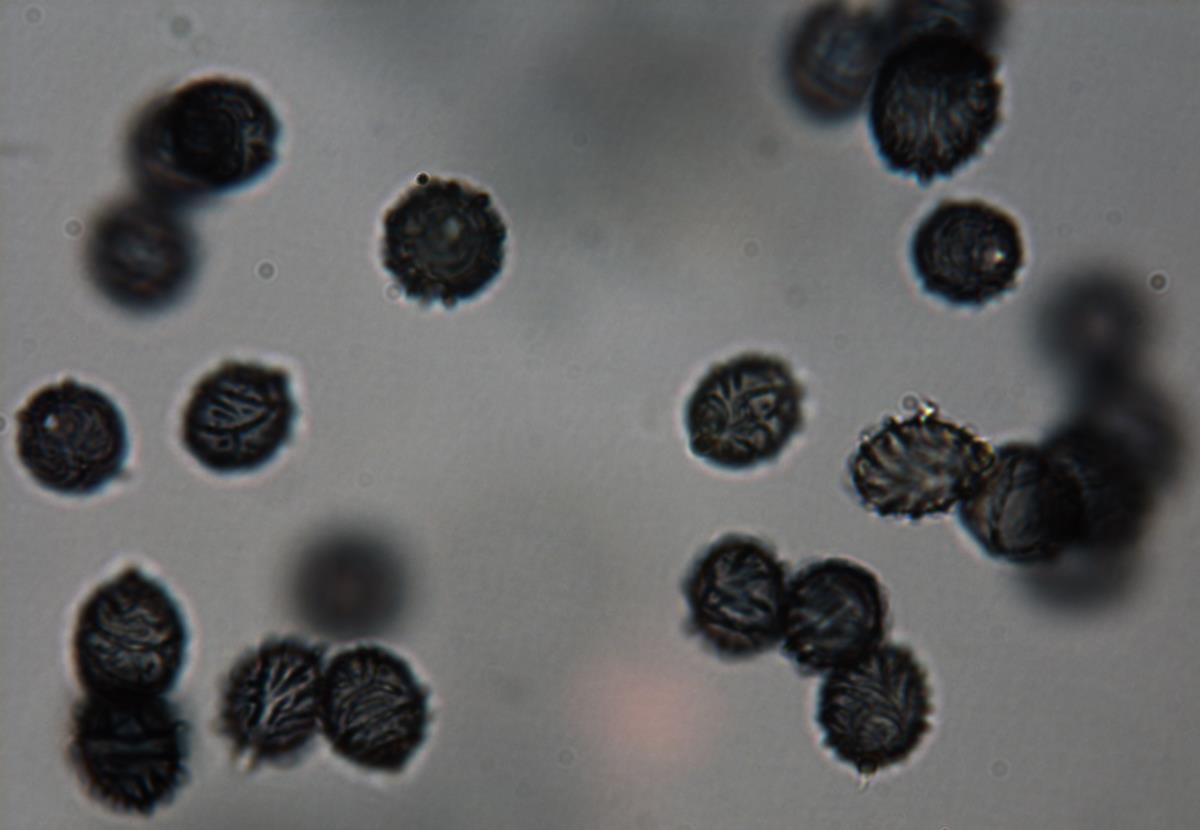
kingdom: Fungi
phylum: Basidiomycota
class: Agaricomycetes
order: Russulales
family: Russulaceae
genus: Zelleromyces
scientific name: Zelleromyces
